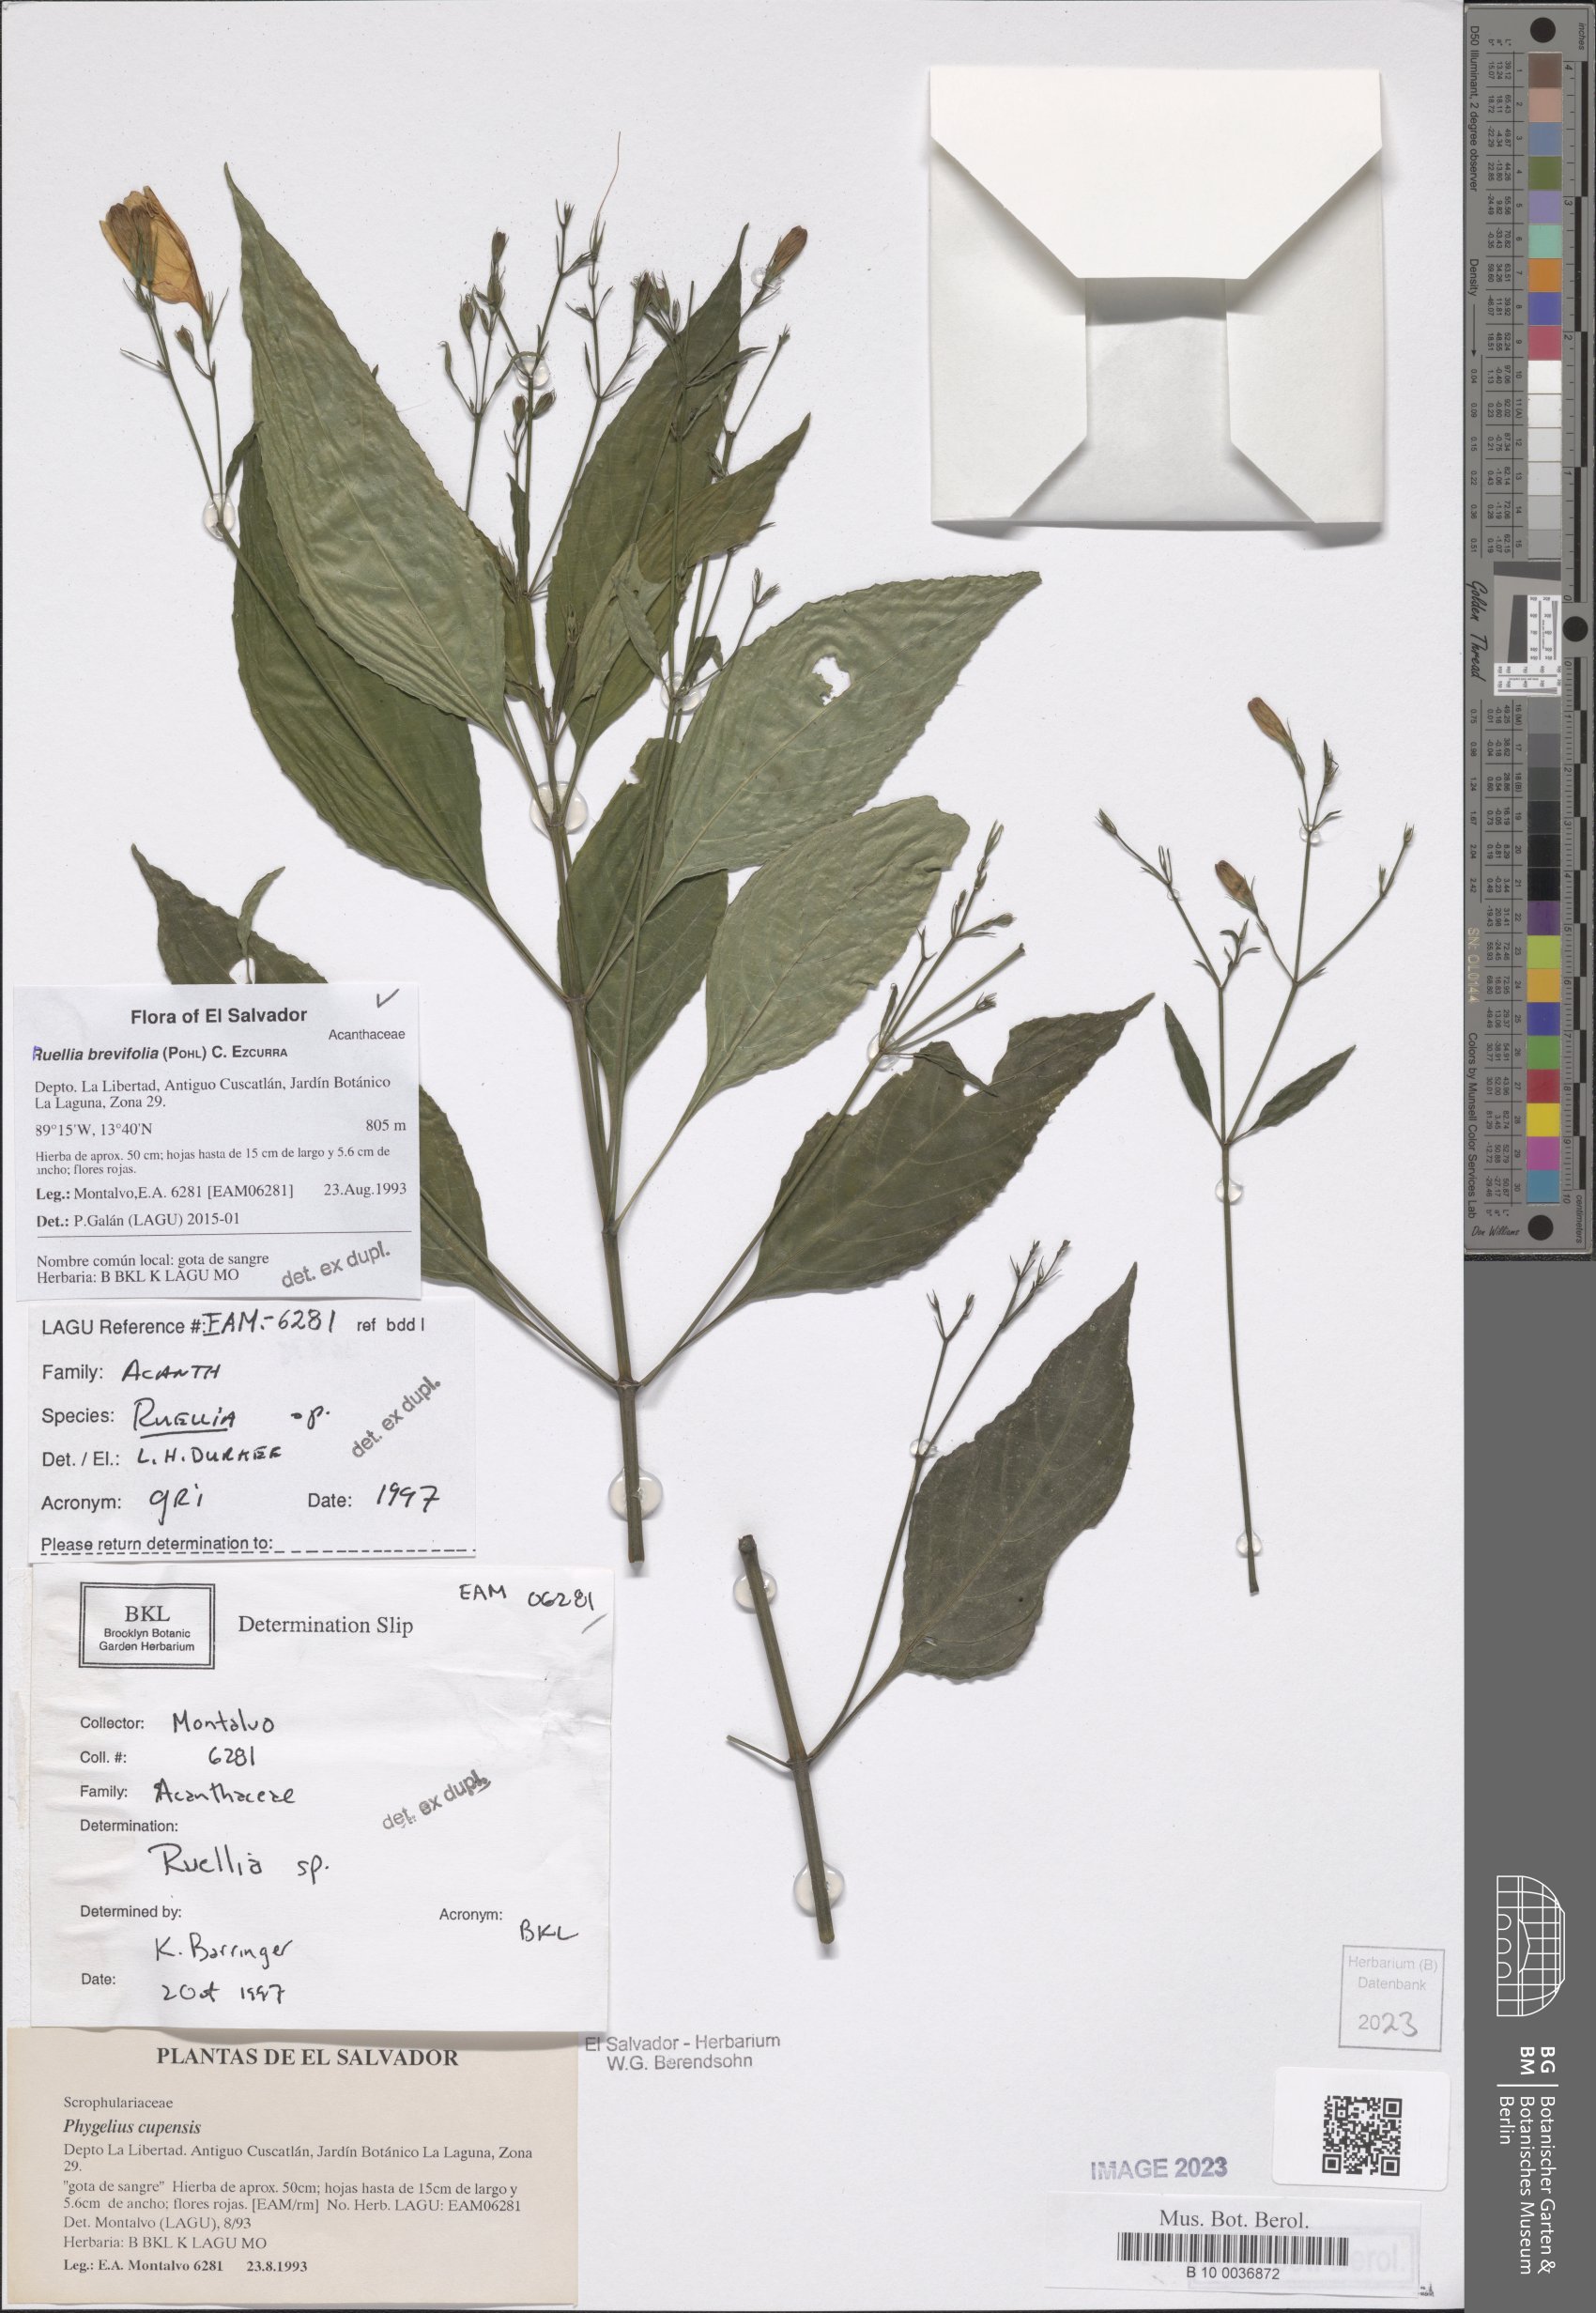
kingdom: Plantae
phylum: Tracheophyta
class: Magnoliopsida
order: Lamiales
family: Acanthaceae
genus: Ruellia
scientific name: Ruellia brevifolia
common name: Tropical wild petunia
